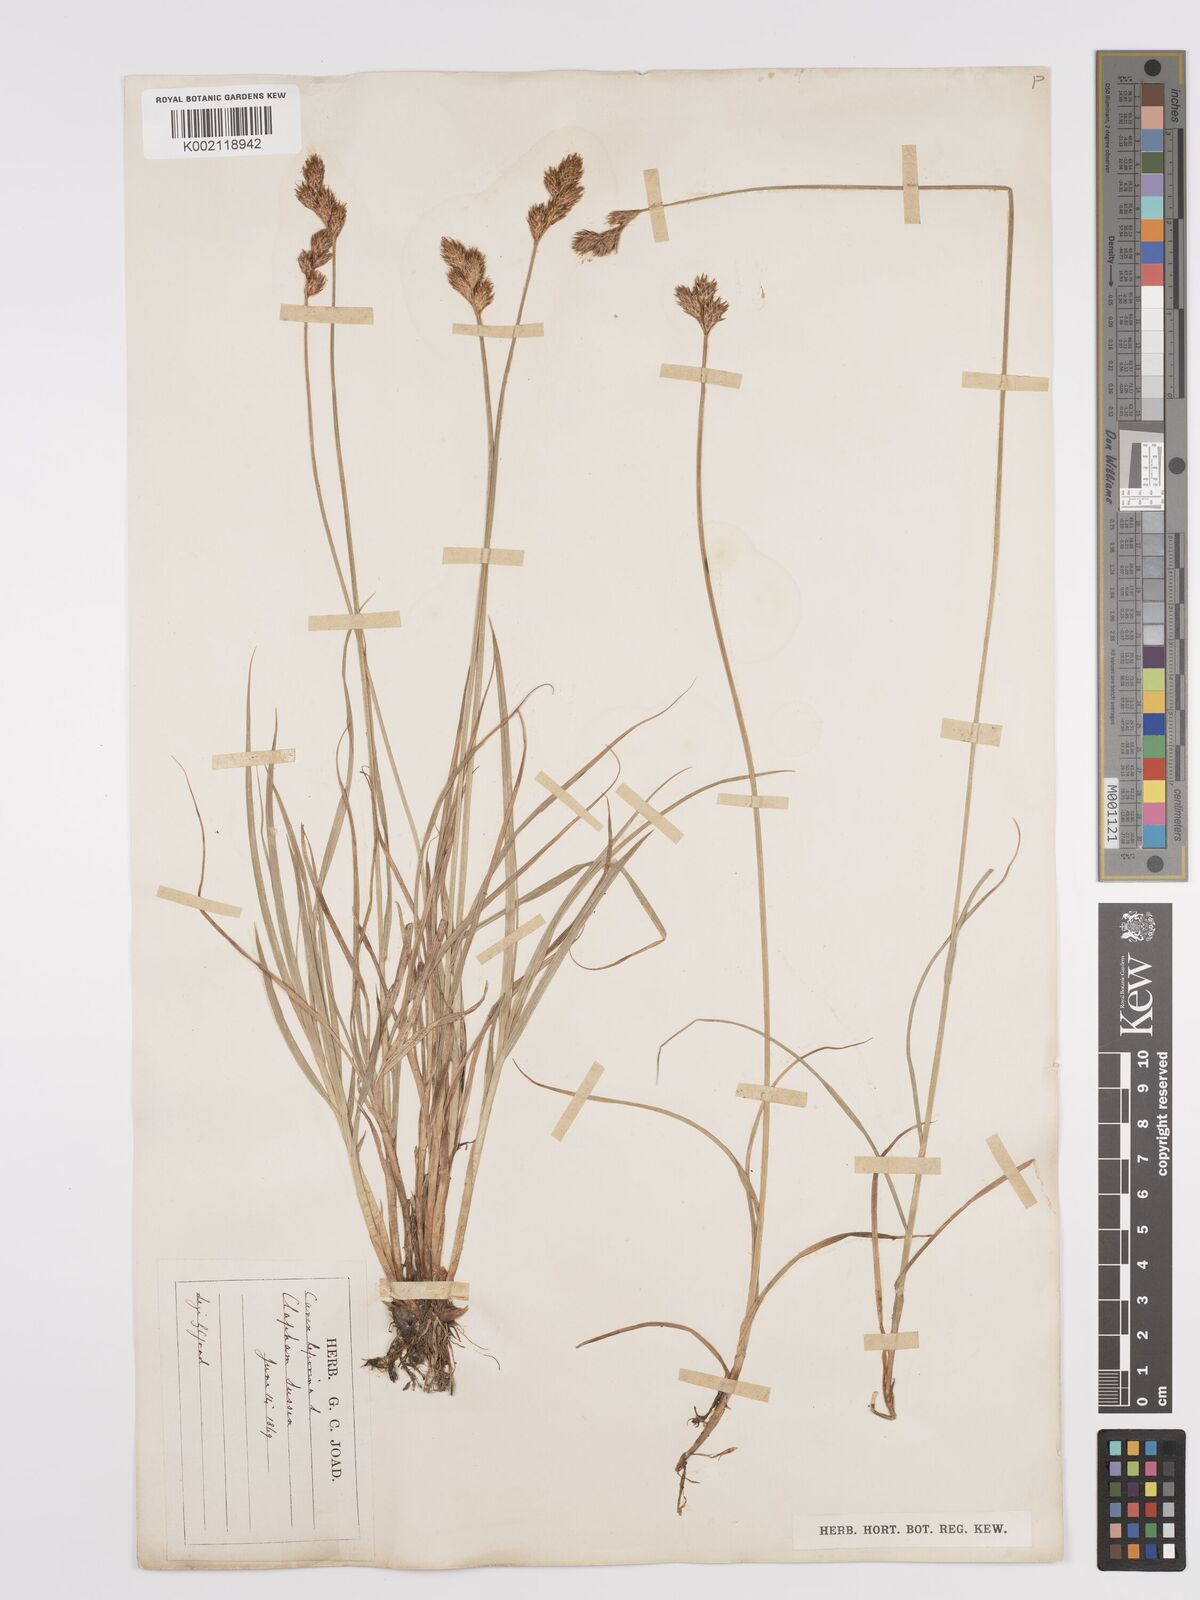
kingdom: Plantae
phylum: Tracheophyta
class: Liliopsida
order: Poales
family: Cyperaceae
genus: Carex
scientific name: Carex leporina
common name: Oval sedge
